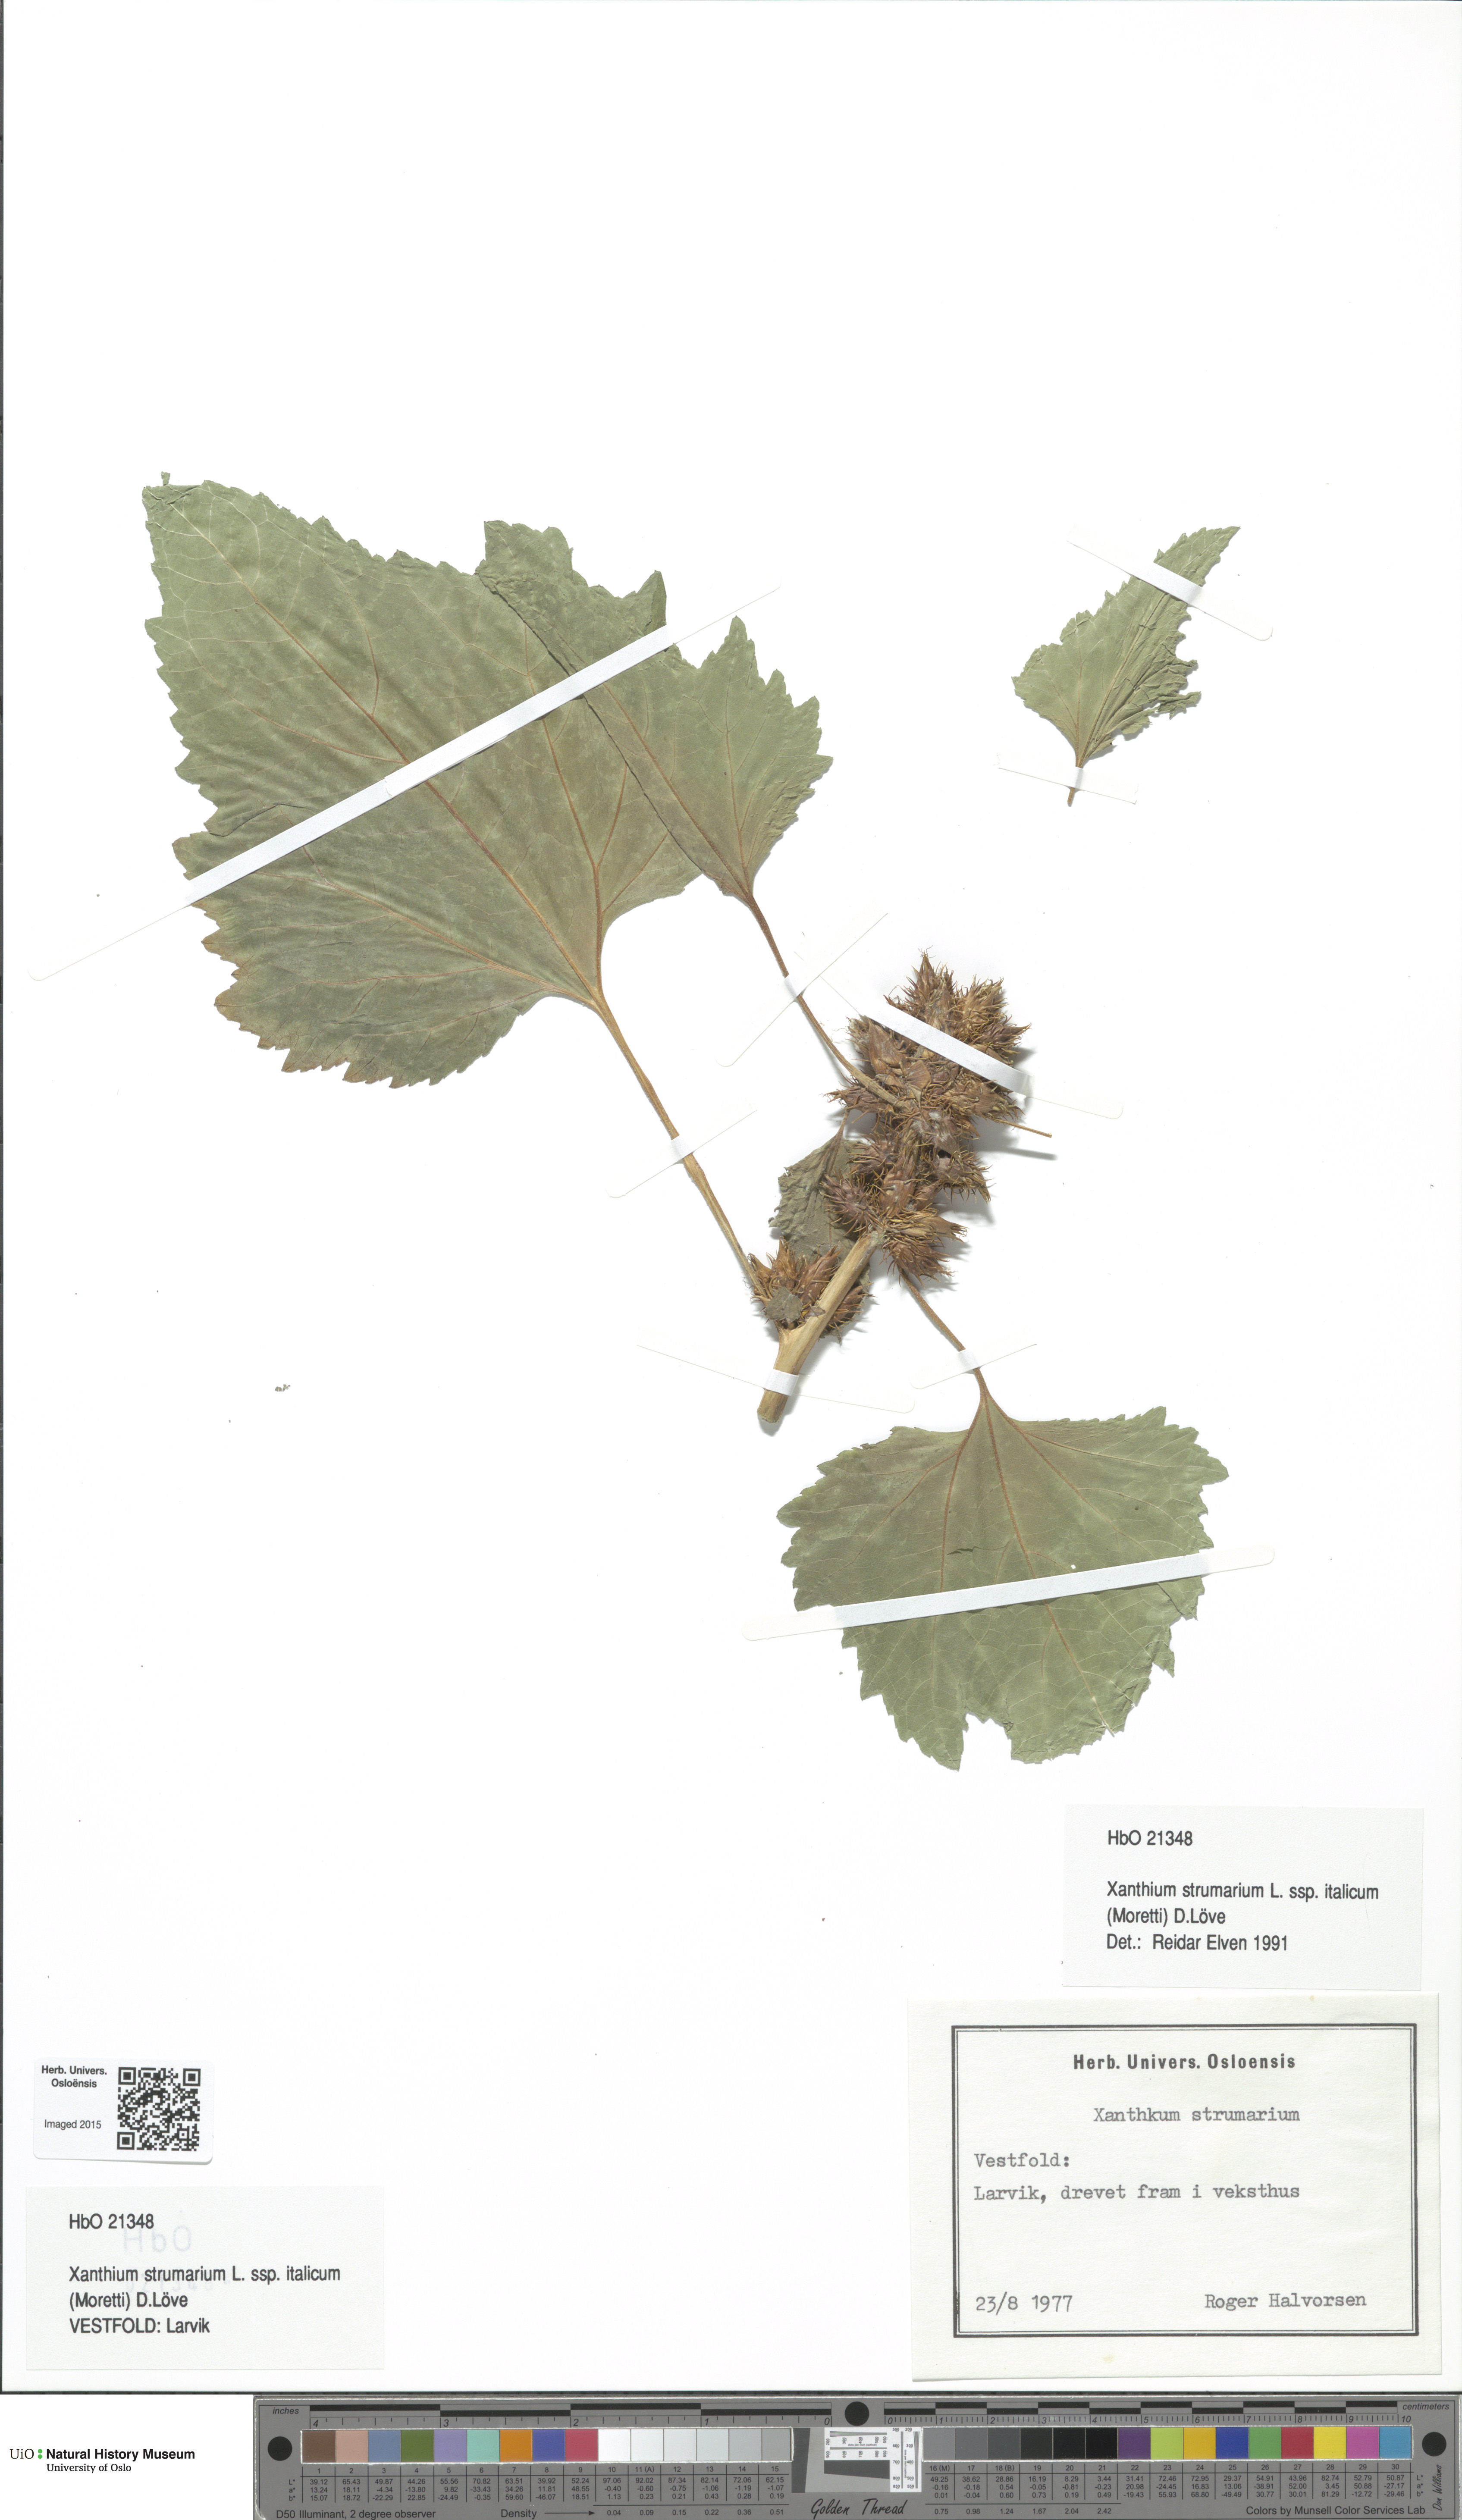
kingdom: Plantae
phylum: Tracheophyta
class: Magnoliopsida
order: Asterales
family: Asteraceae
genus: Xanthium
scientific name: Xanthium orientale
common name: Californian burr
